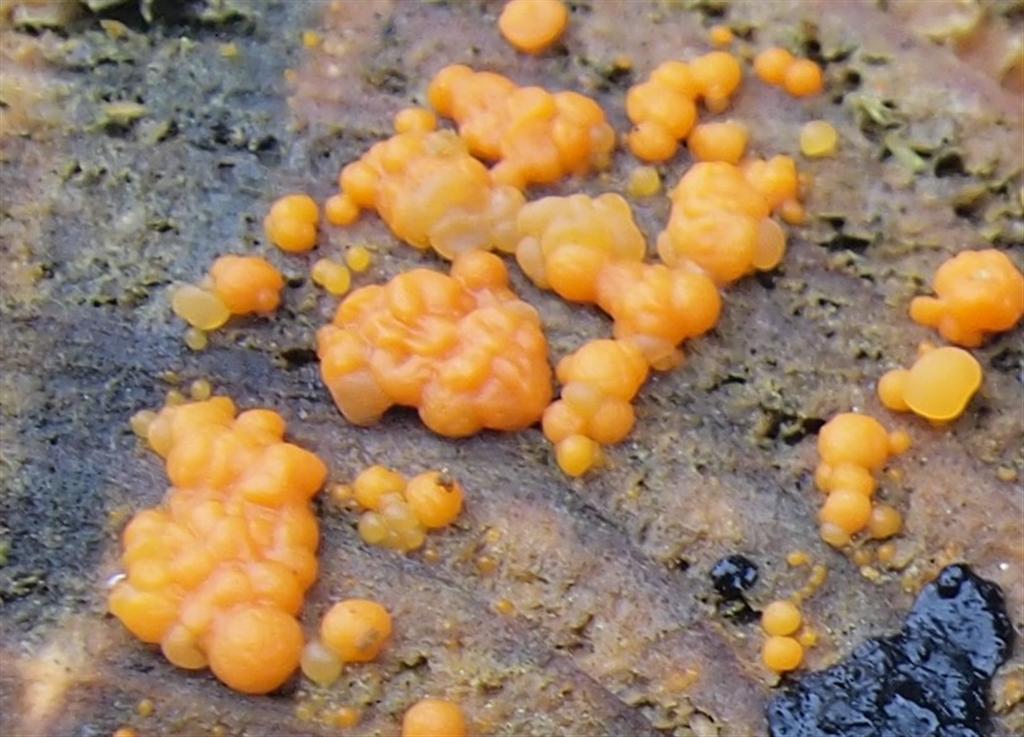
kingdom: Fungi
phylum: Basidiomycota
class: Dacrymycetes
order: Dacrymycetales
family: Dacrymycetaceae
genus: Dacrymyces
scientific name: Dacrymyces stillatus
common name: almindelig tåresvamp
